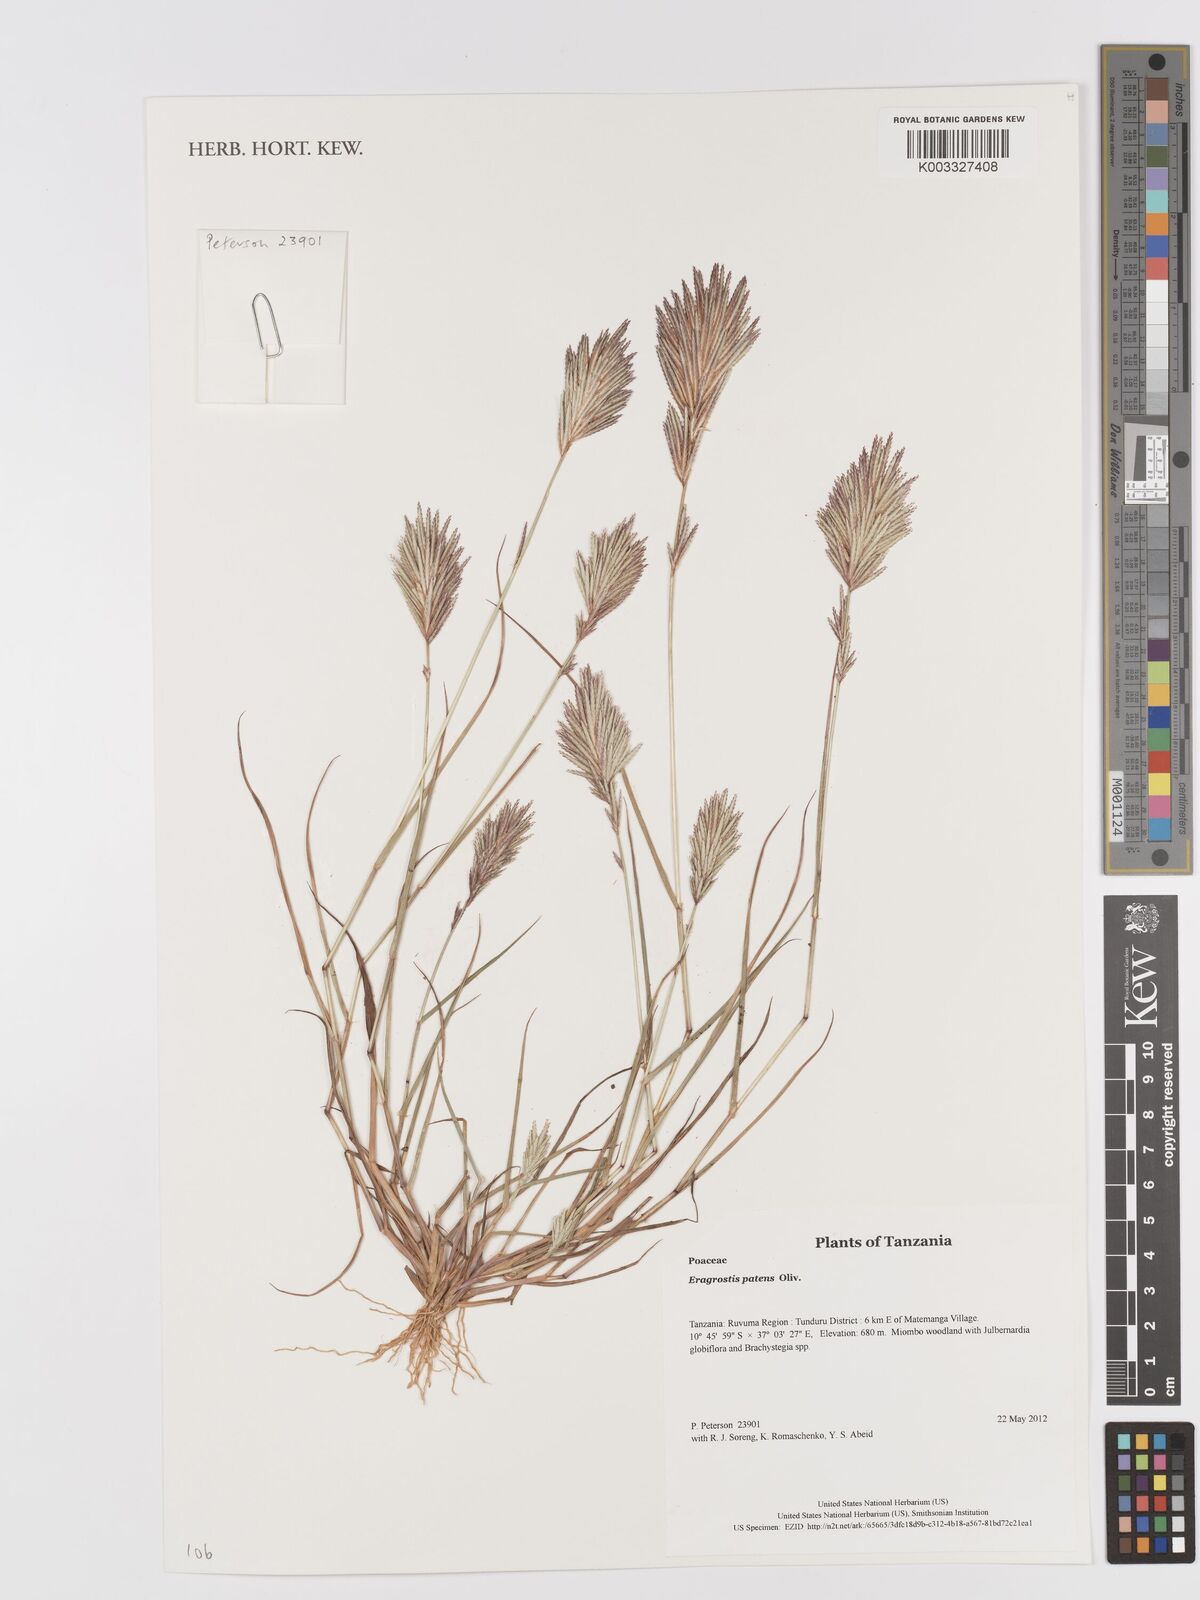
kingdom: Plantae
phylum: Tracheophyta
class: Liliopsida
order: Poales
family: Poaceae
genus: Eragrostis
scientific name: Eragrostis patens
